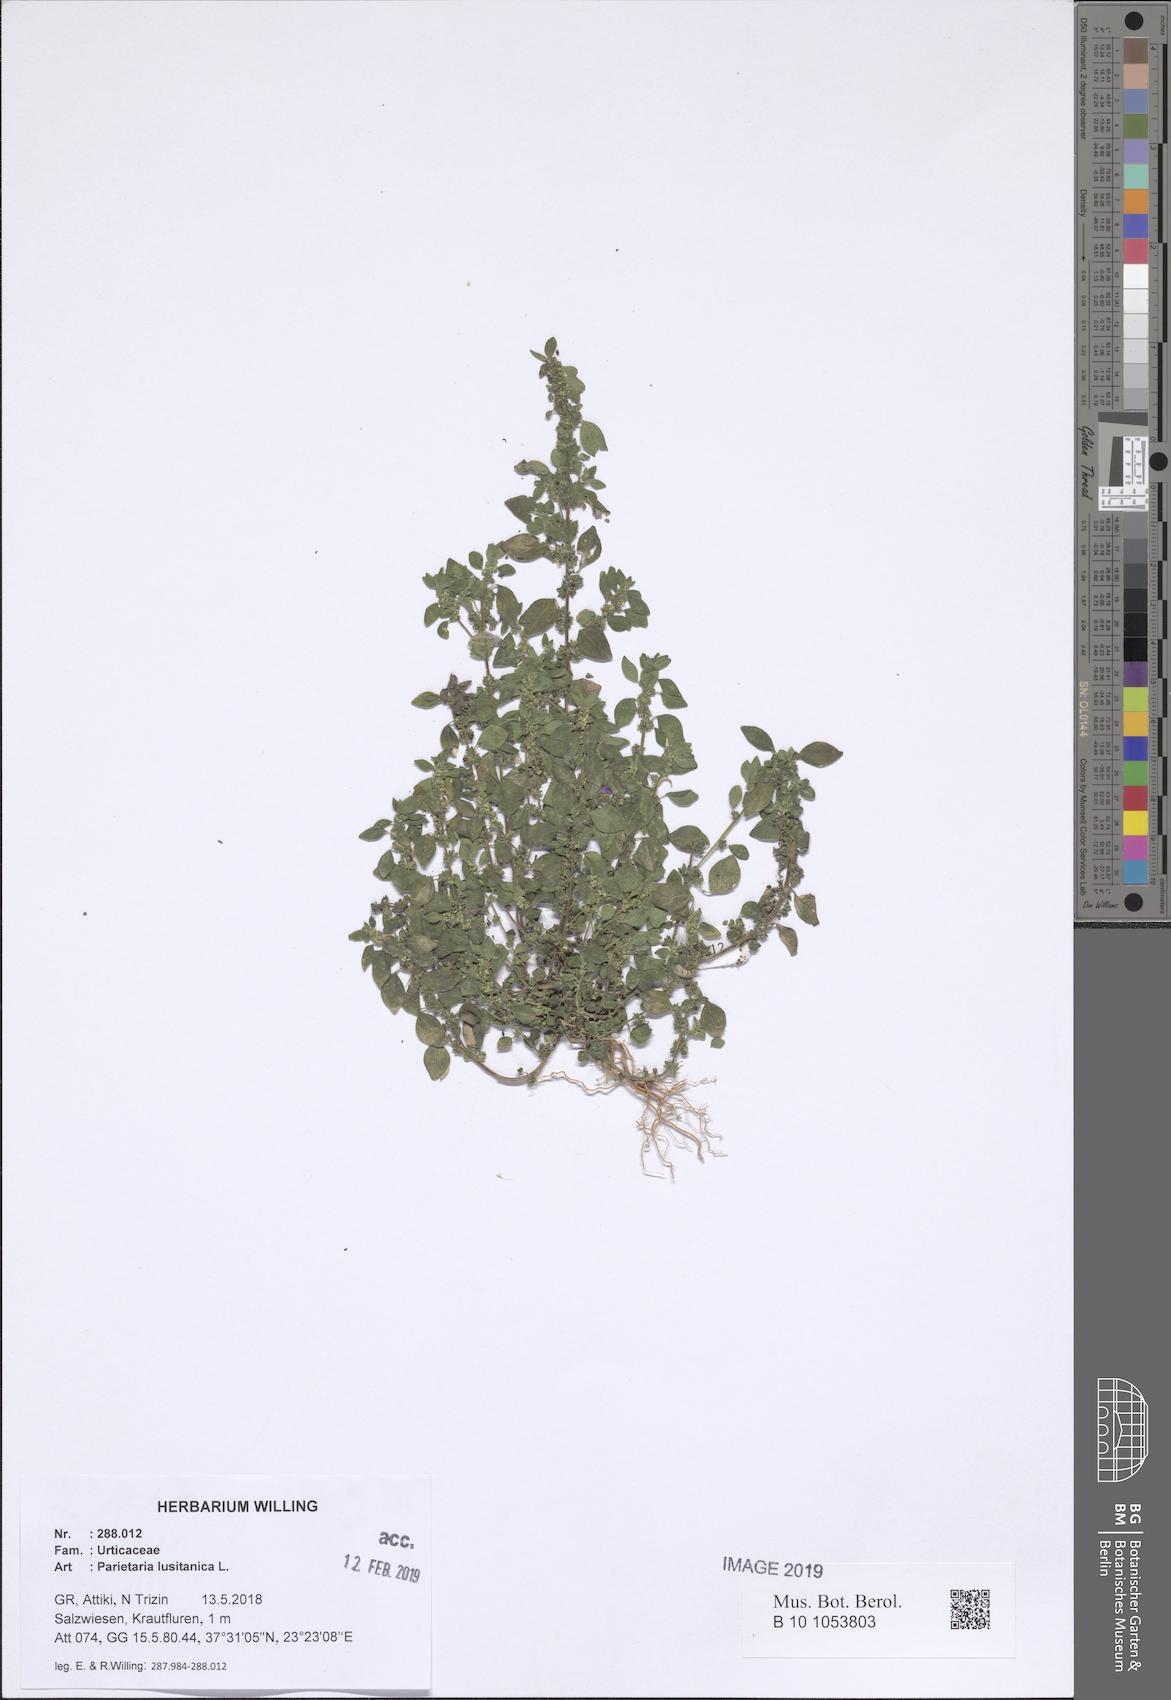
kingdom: Plantae
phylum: Tracheophyta
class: Magnoliopsida
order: Rosales
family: Urticaceae
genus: Parietaria
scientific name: Parietaria lusitanica
